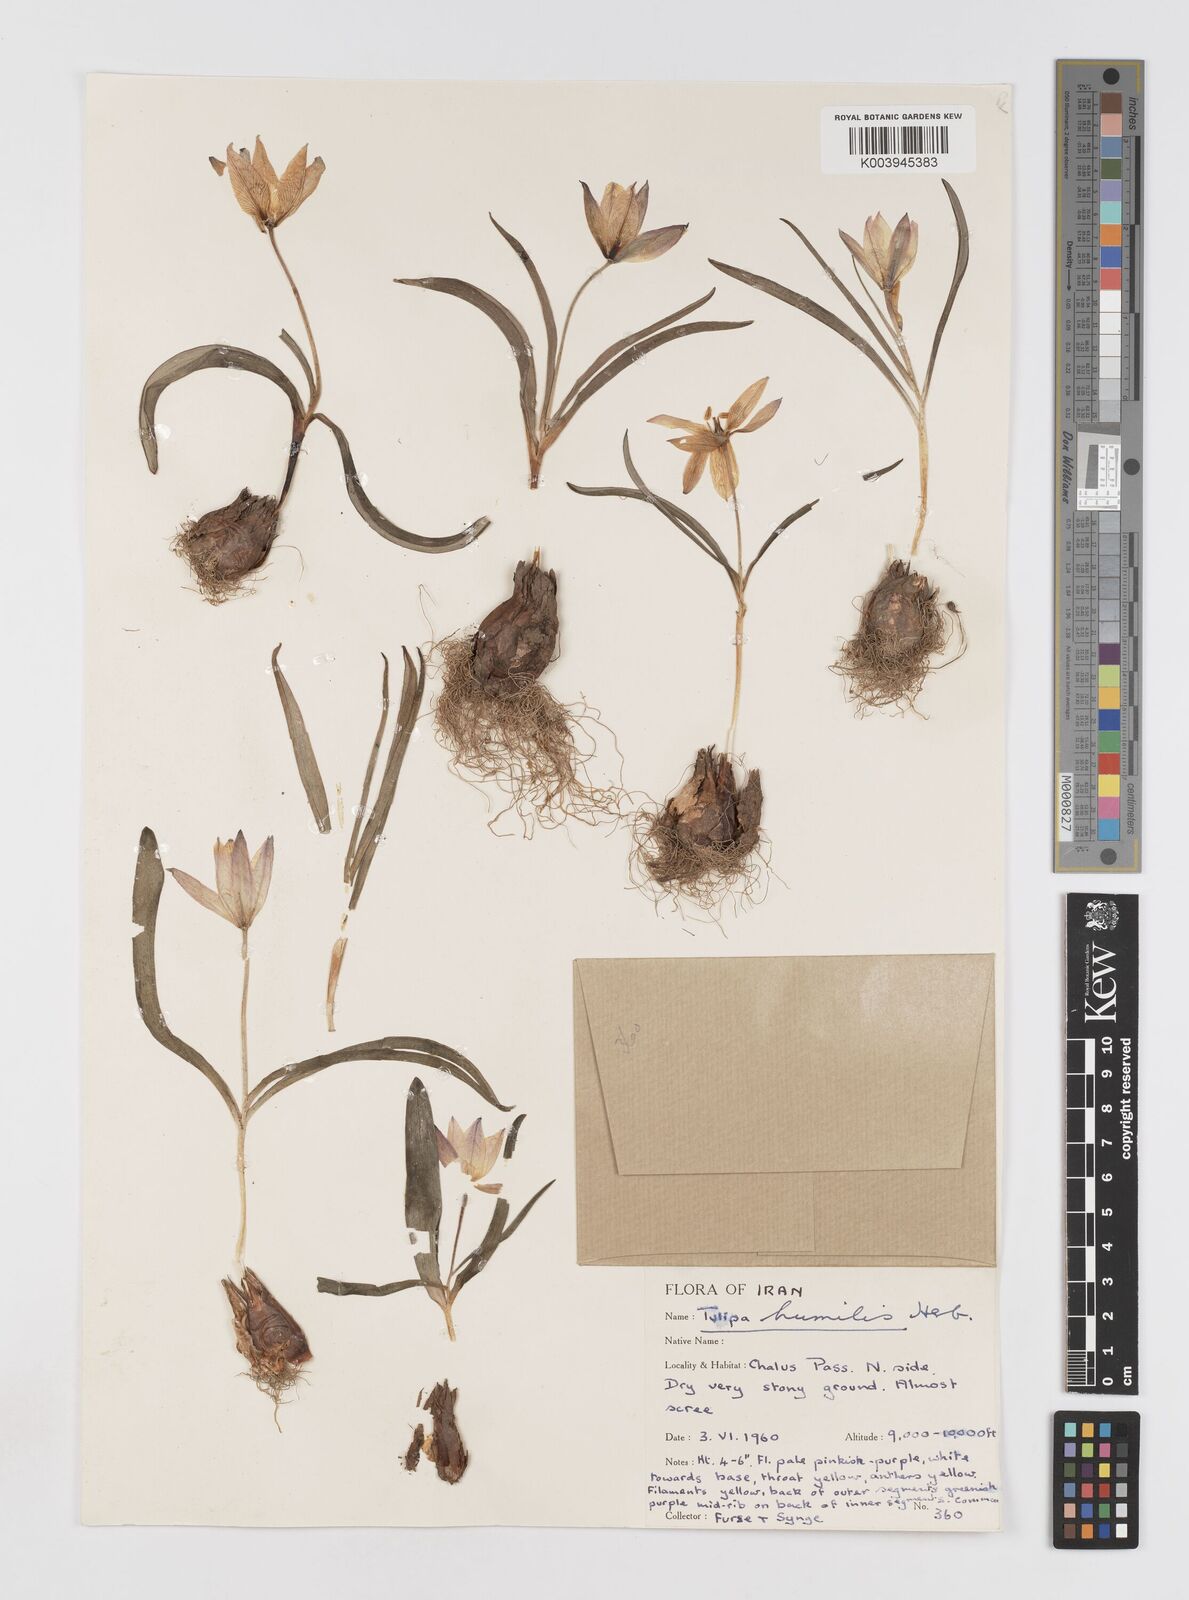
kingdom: Plantae
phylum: Tracheophyta
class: Liliopsida
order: Liliales
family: Liliaceae
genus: Tulipa
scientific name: Tulipa humilis
